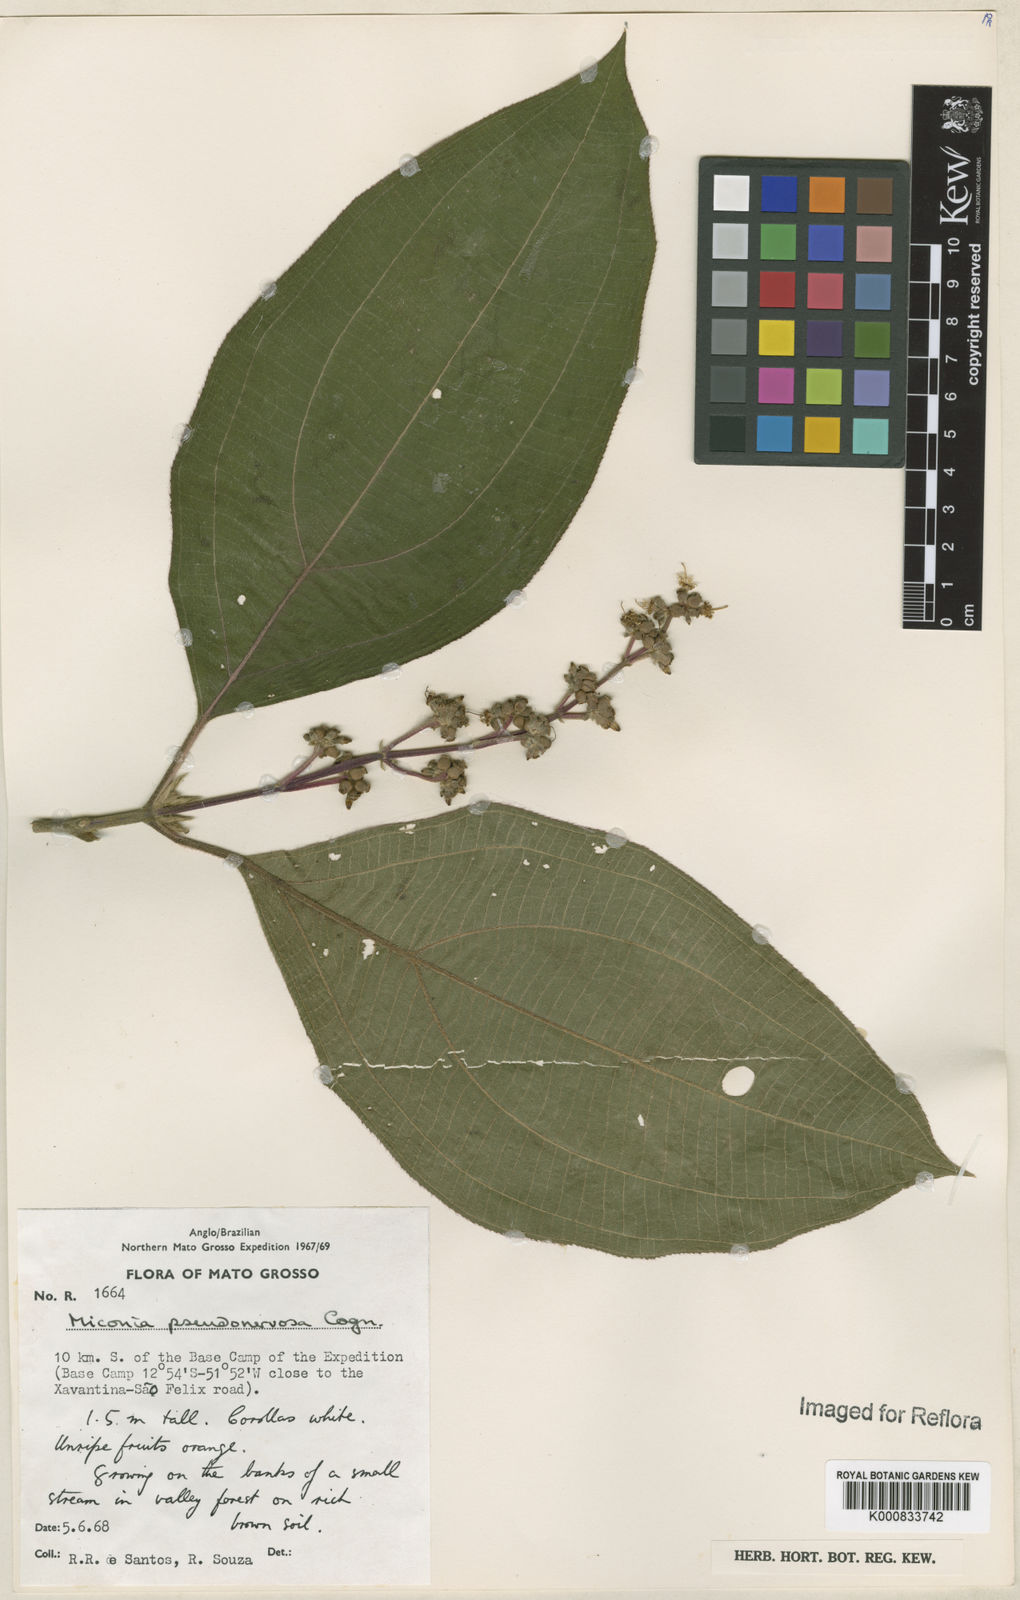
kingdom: Plantae
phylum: Tracheophyta
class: Magnoliopsida
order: Myrtales
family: Melastomataceae
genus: Miconia
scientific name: Miconia pseudonervosa
